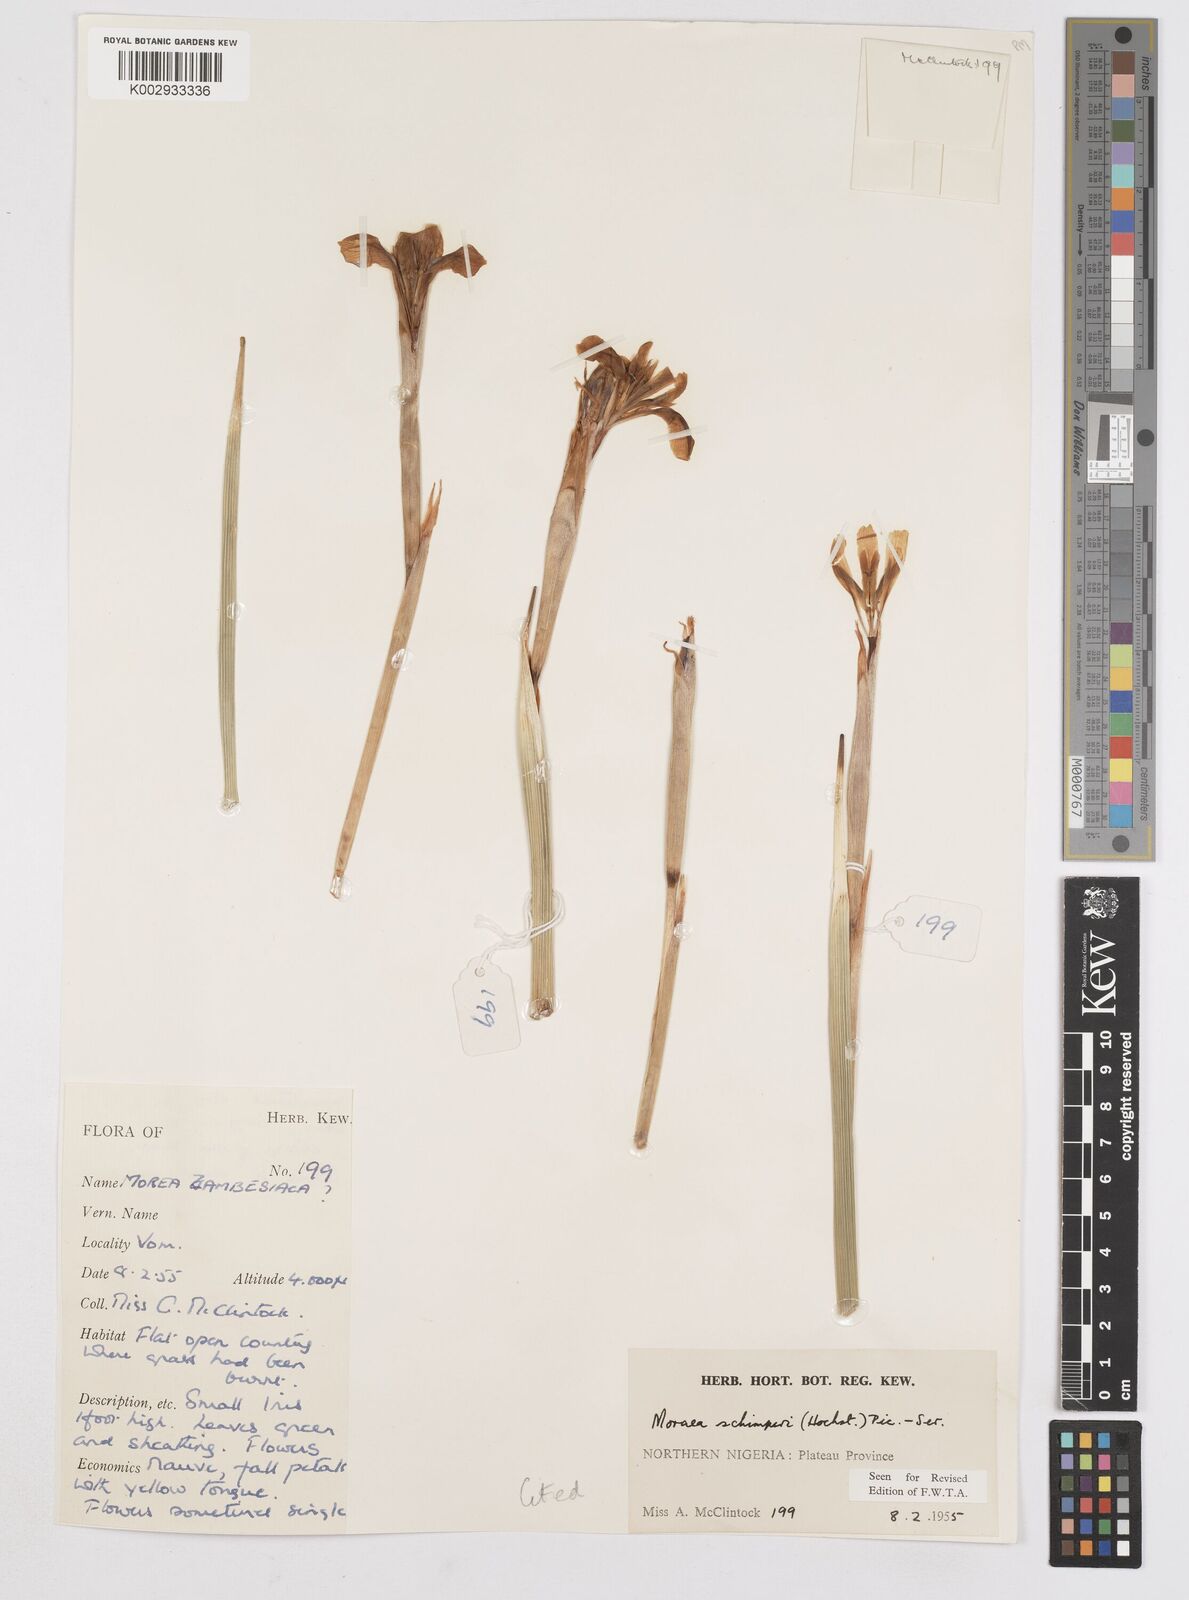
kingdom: Plantae
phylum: Tracheophyta
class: Liliopsida
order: Asparagales
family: Iridaceae
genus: Moraea
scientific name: Moraea schimperi
